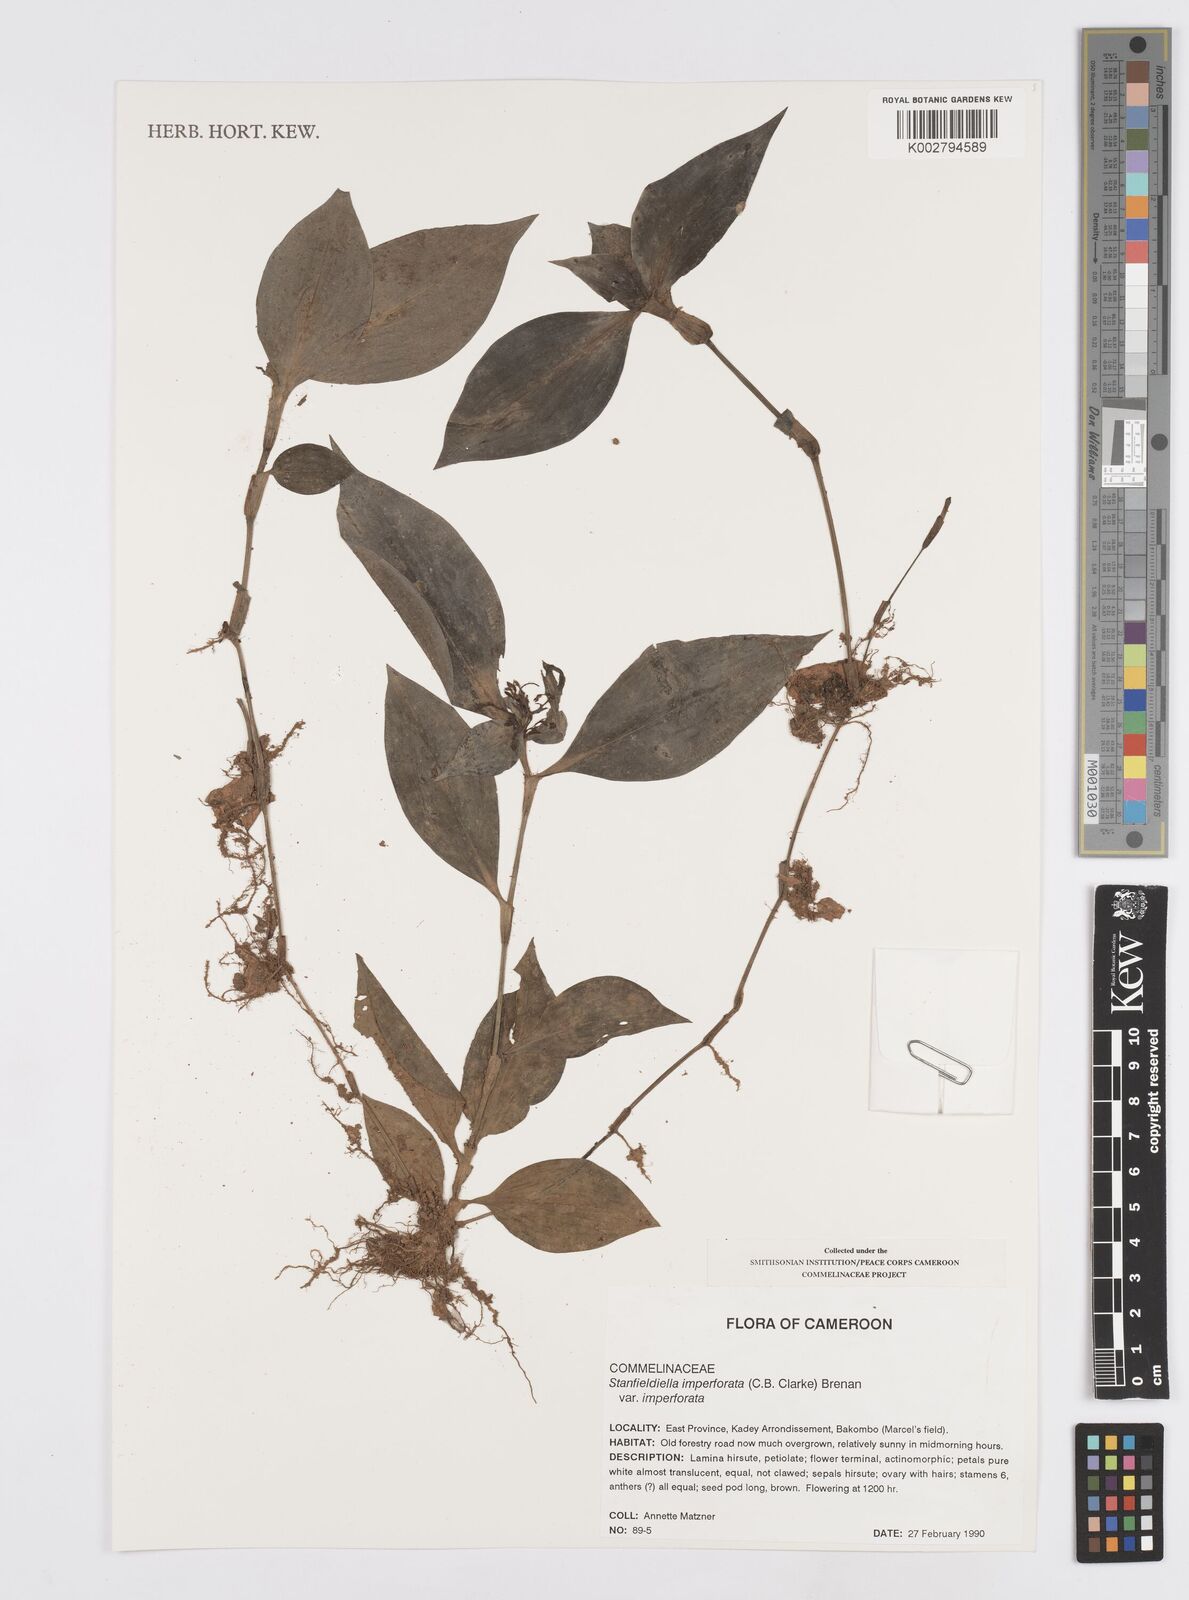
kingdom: Plantae
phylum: Tracheophyta
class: Liliopsida
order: Commelinales
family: Commelinaceae
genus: Stanfieldiella
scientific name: Stanfieldiella imperforata
